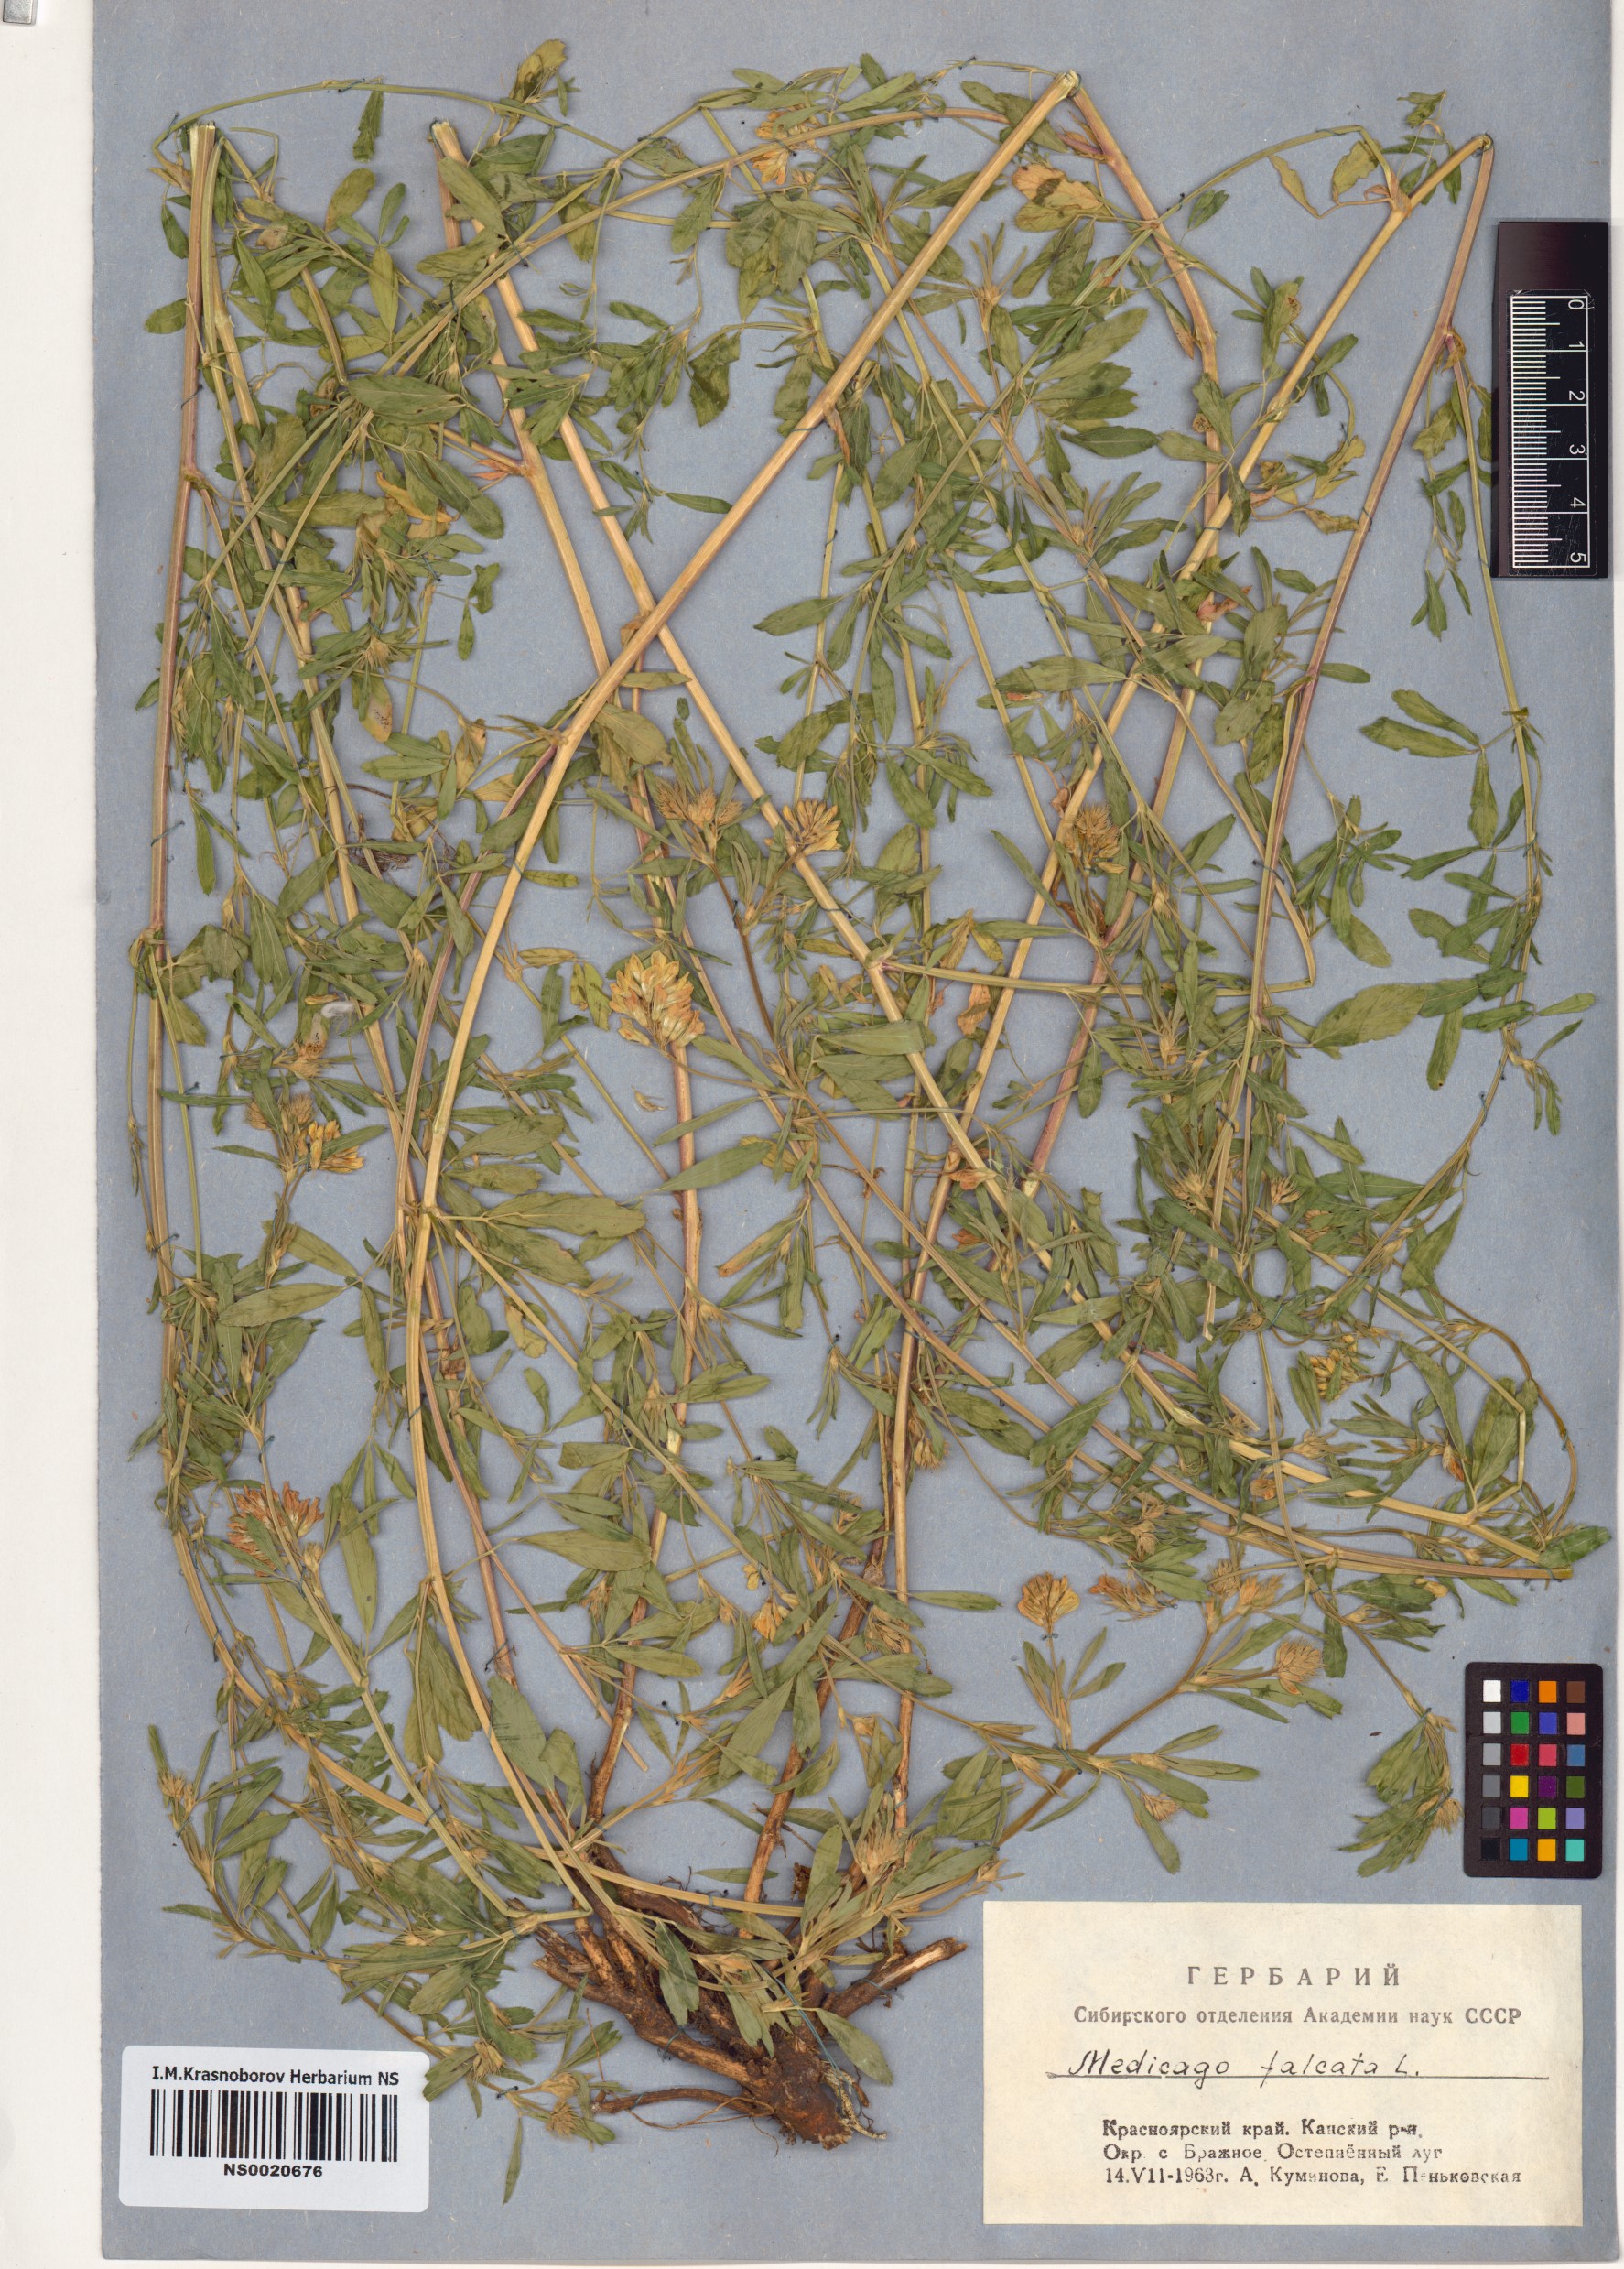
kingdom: Plantae
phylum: Tracheophyta
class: Magnoliopsida
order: Fabales
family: Fabaceae
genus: Medicago
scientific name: Medicago falcata
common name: Sickle medick
